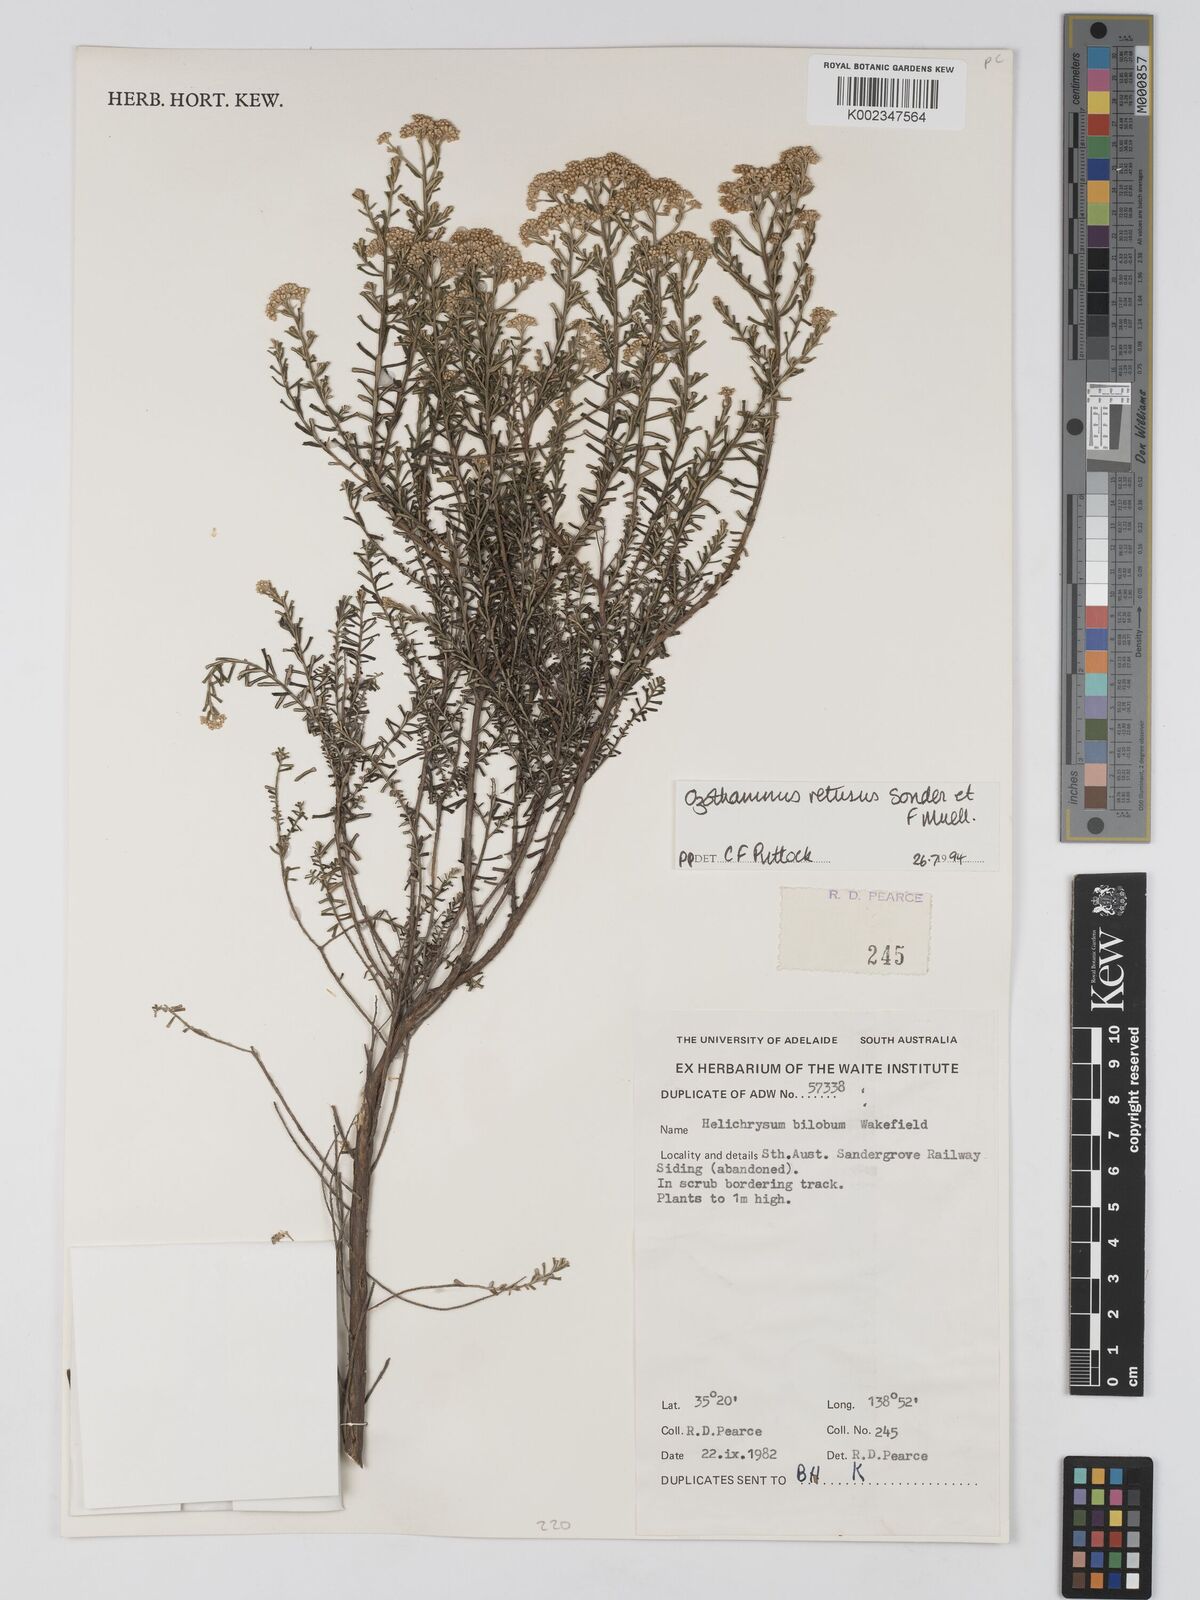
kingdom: Plantae
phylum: Tracheophyta
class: Magnoliopsida
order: Asterales
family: Asteraceae
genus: Ozothamnus
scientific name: Ozothamnus adnatus
